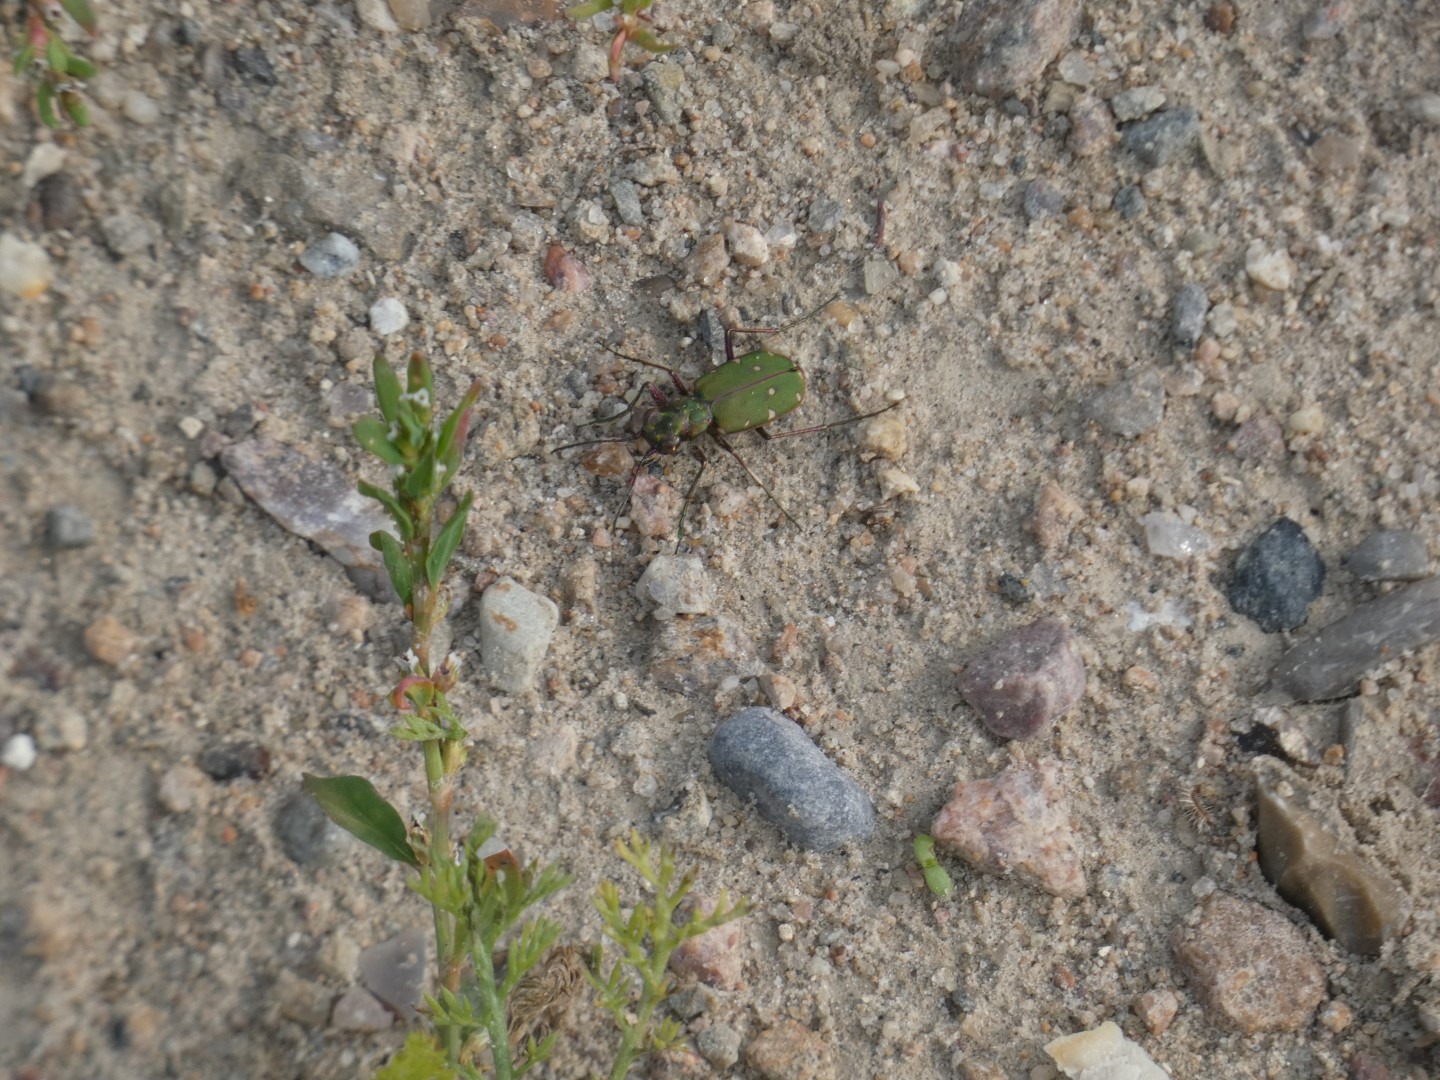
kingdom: Animalia
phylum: Arthropoda
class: Insecta
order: Coleoptera
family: Carabidae
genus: Cicindela
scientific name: Cicindela campestris
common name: Grøn sandspringer
